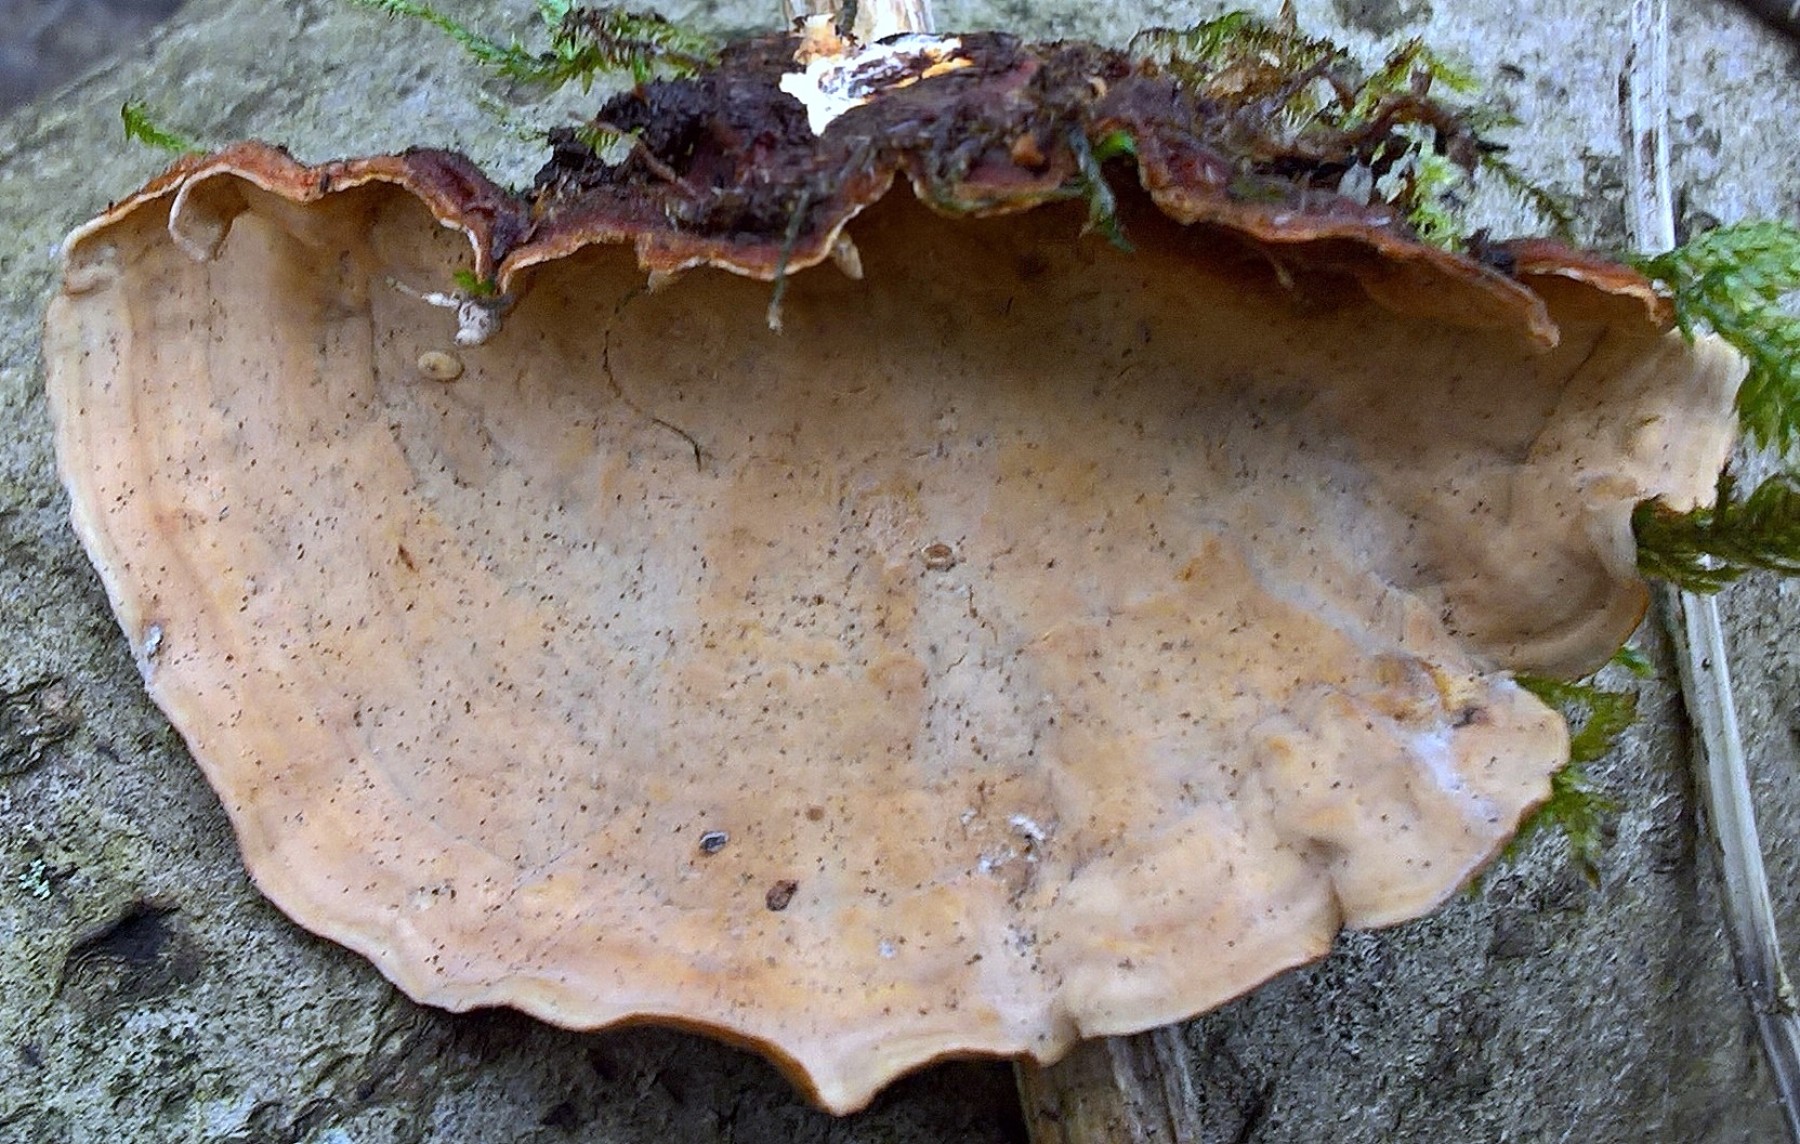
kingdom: Fungi
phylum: Basidiomycota
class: Agaricomycetes
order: Russulales
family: Stereaceae
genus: Stereum
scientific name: Stereum subtomentosum
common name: smuk lædersvamp
